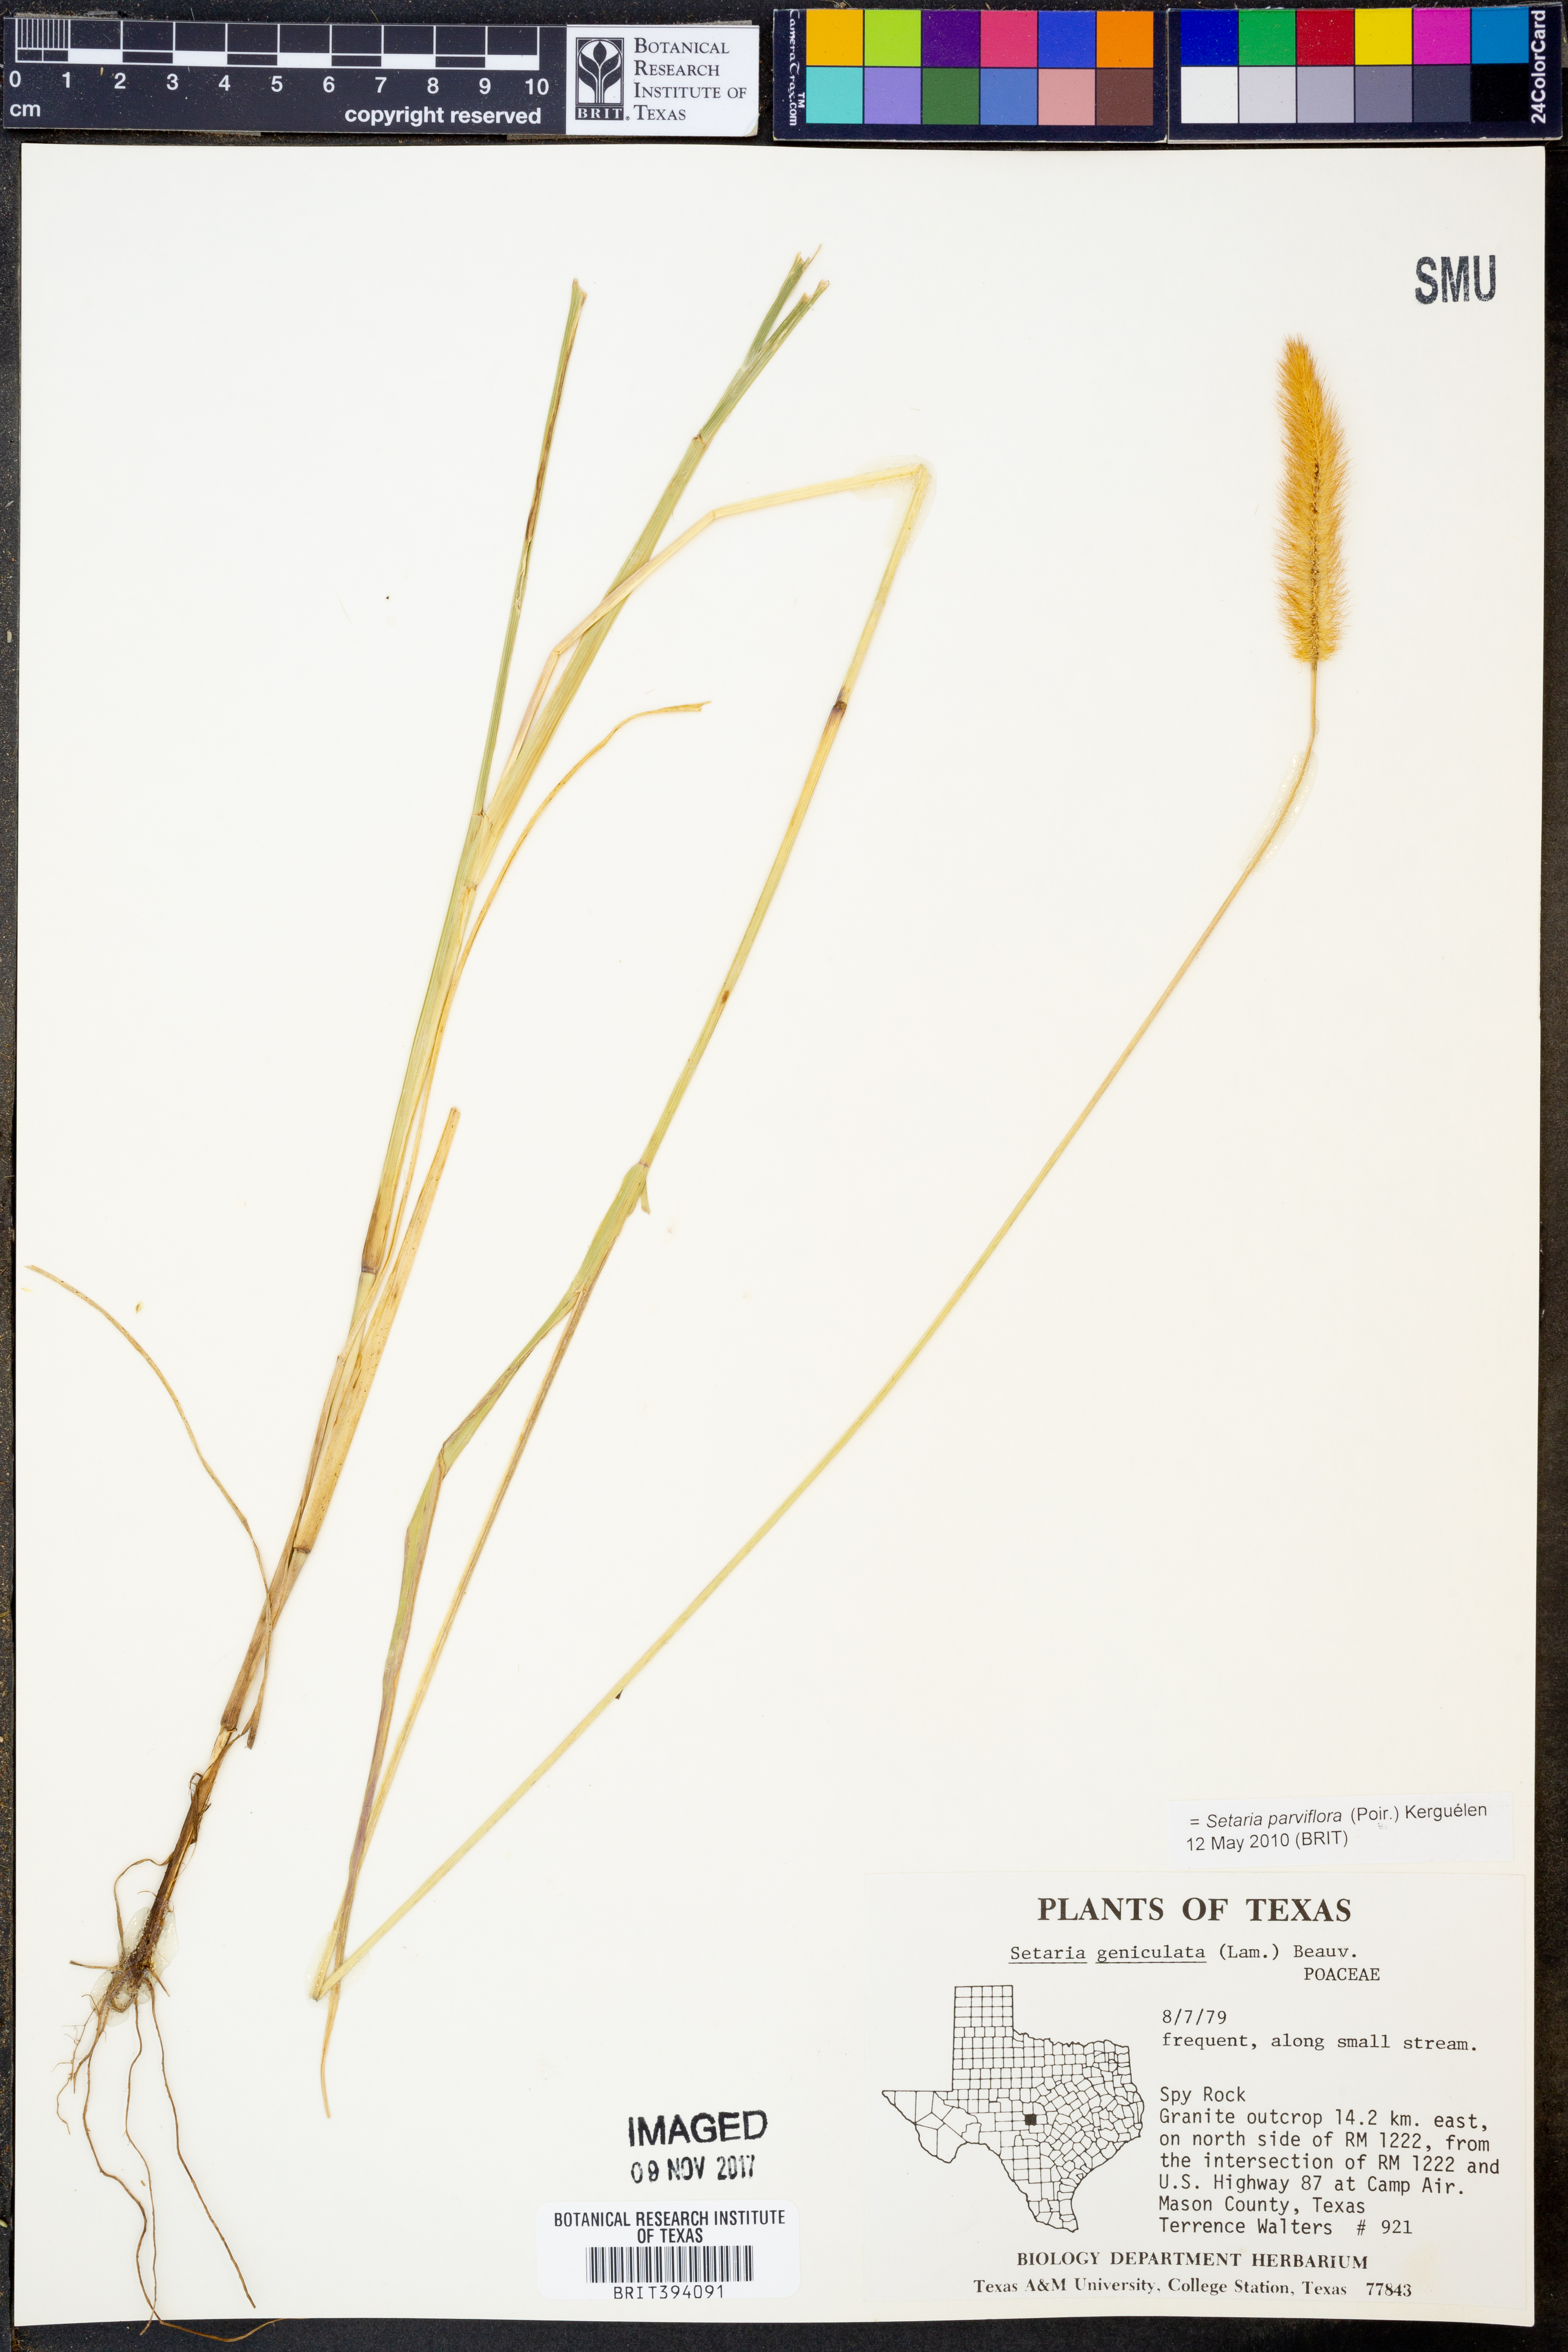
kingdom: Plantae
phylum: Tracheophyta
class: Liliopsida
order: Poales
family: Poaceae
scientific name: Poaceae
